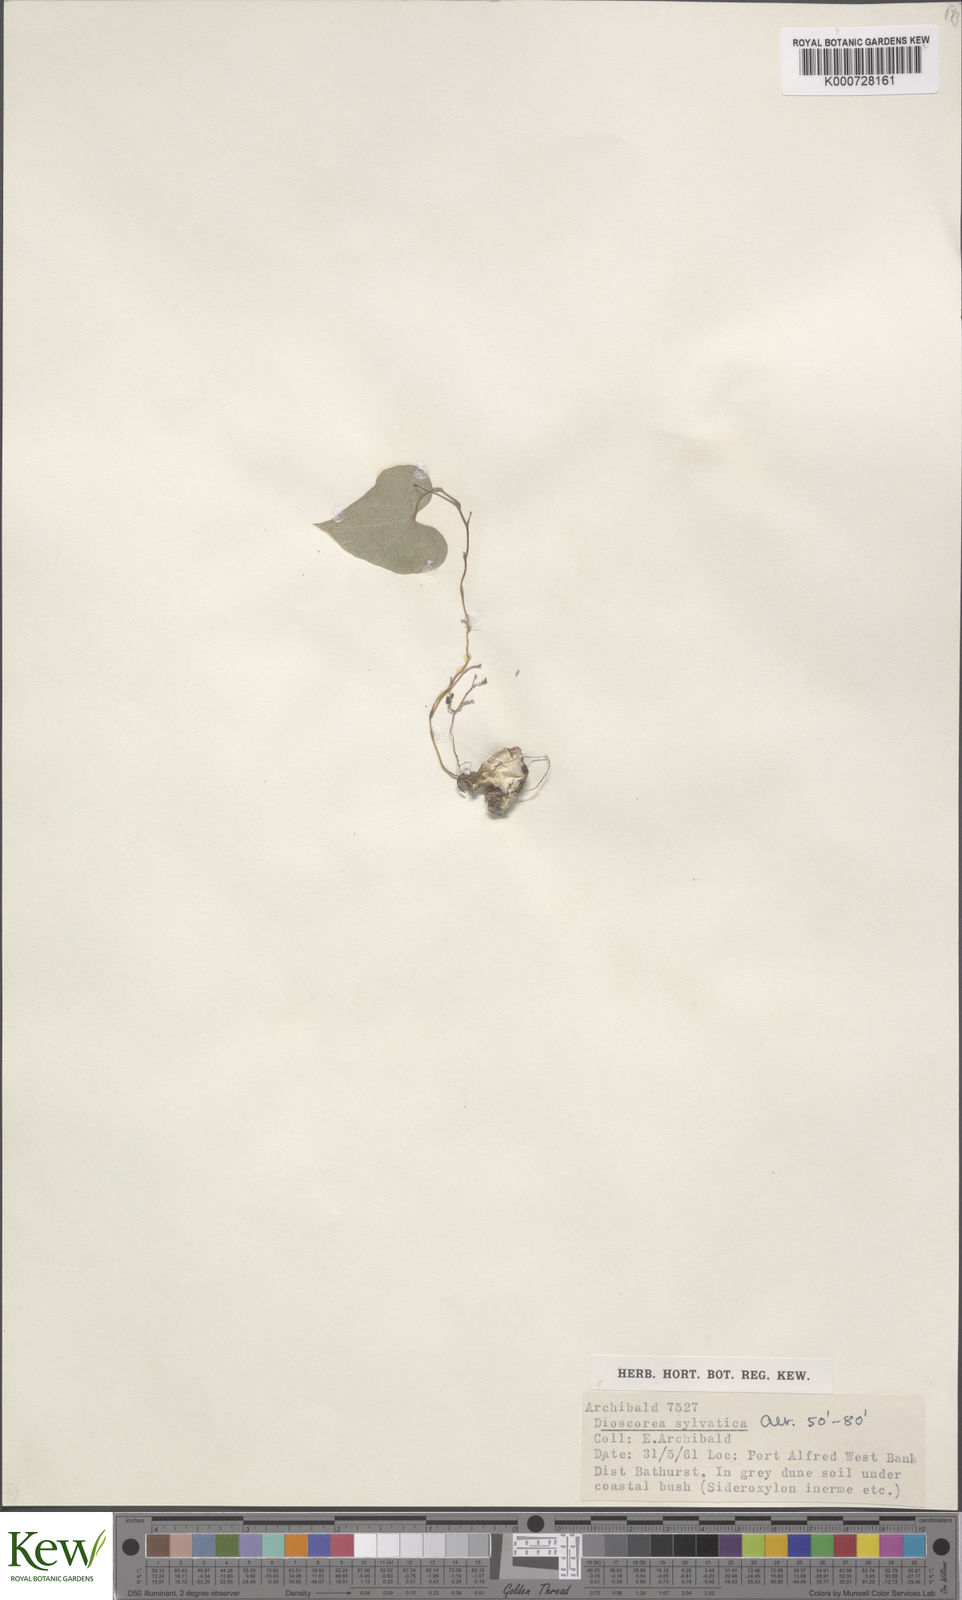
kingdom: Plantae
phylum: Tracheophyta
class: Liliopsida
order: Dioscoreales
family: Dioscoreaceae
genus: Dioscorea
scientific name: Dioscorea sylvatica
